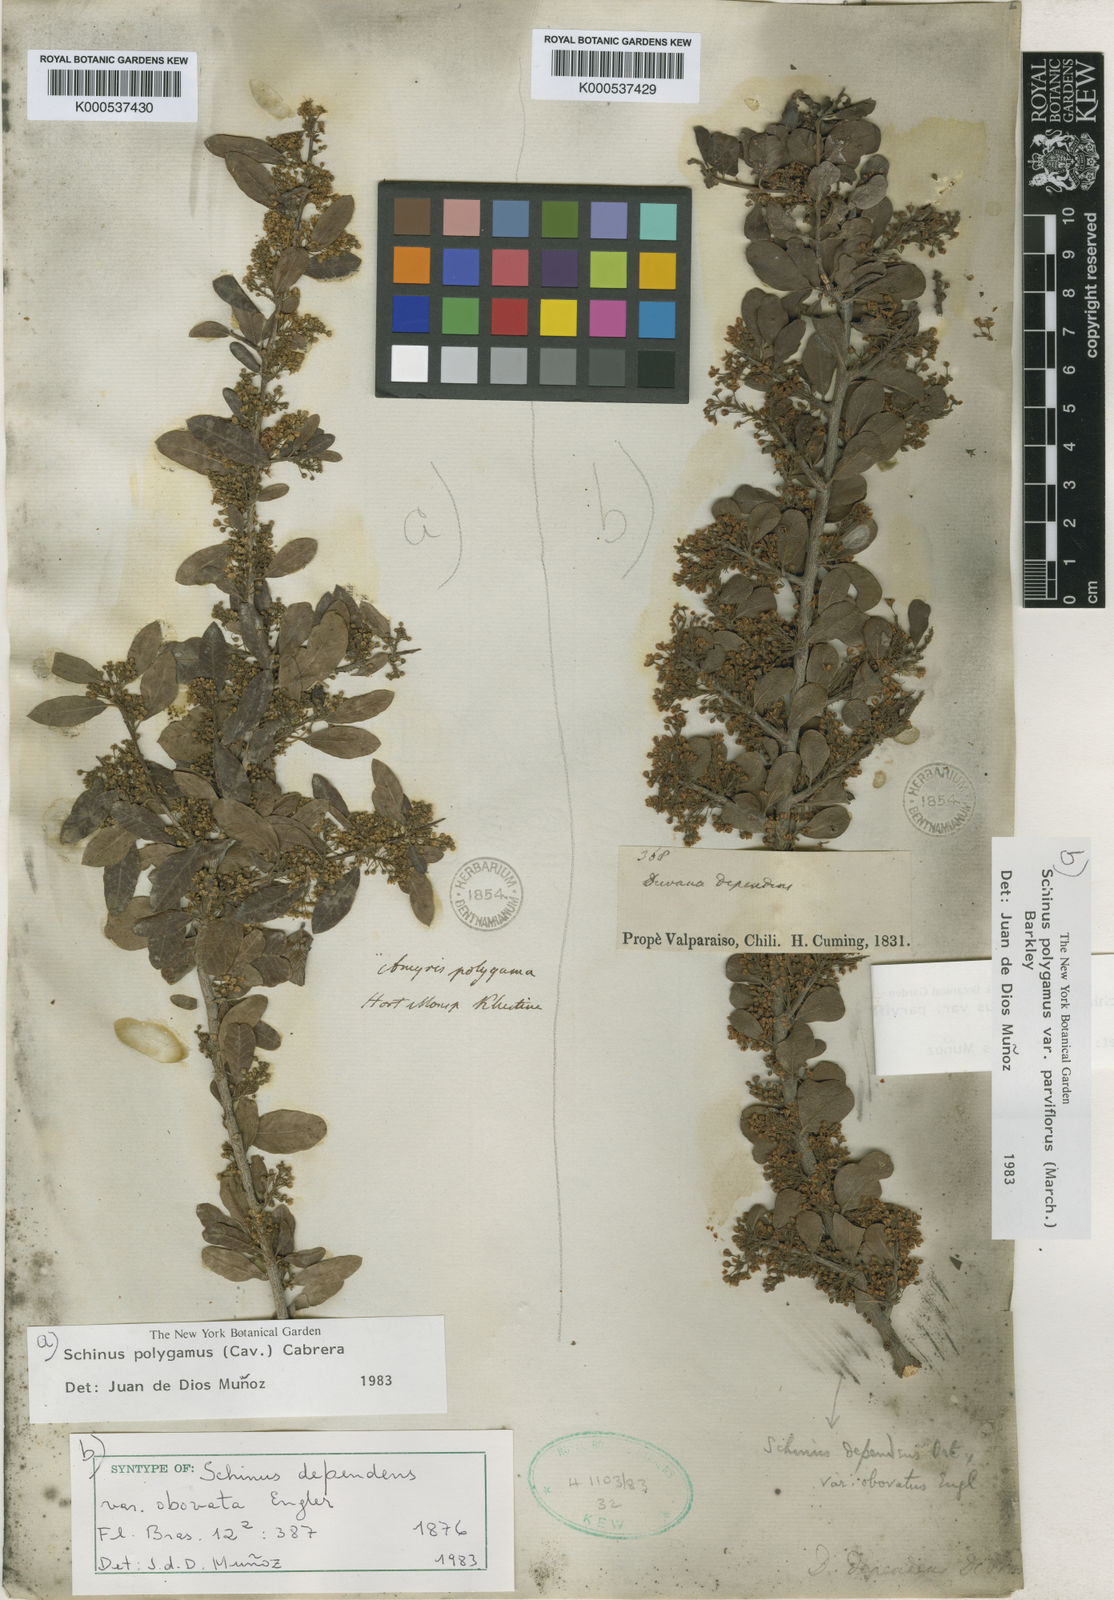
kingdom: Plantae
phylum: Tracheophyta
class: Magnoliopsida
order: Sapindales
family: Anacardiaceae
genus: Schinus
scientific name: Schinus polygama
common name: Hardee peppertree
